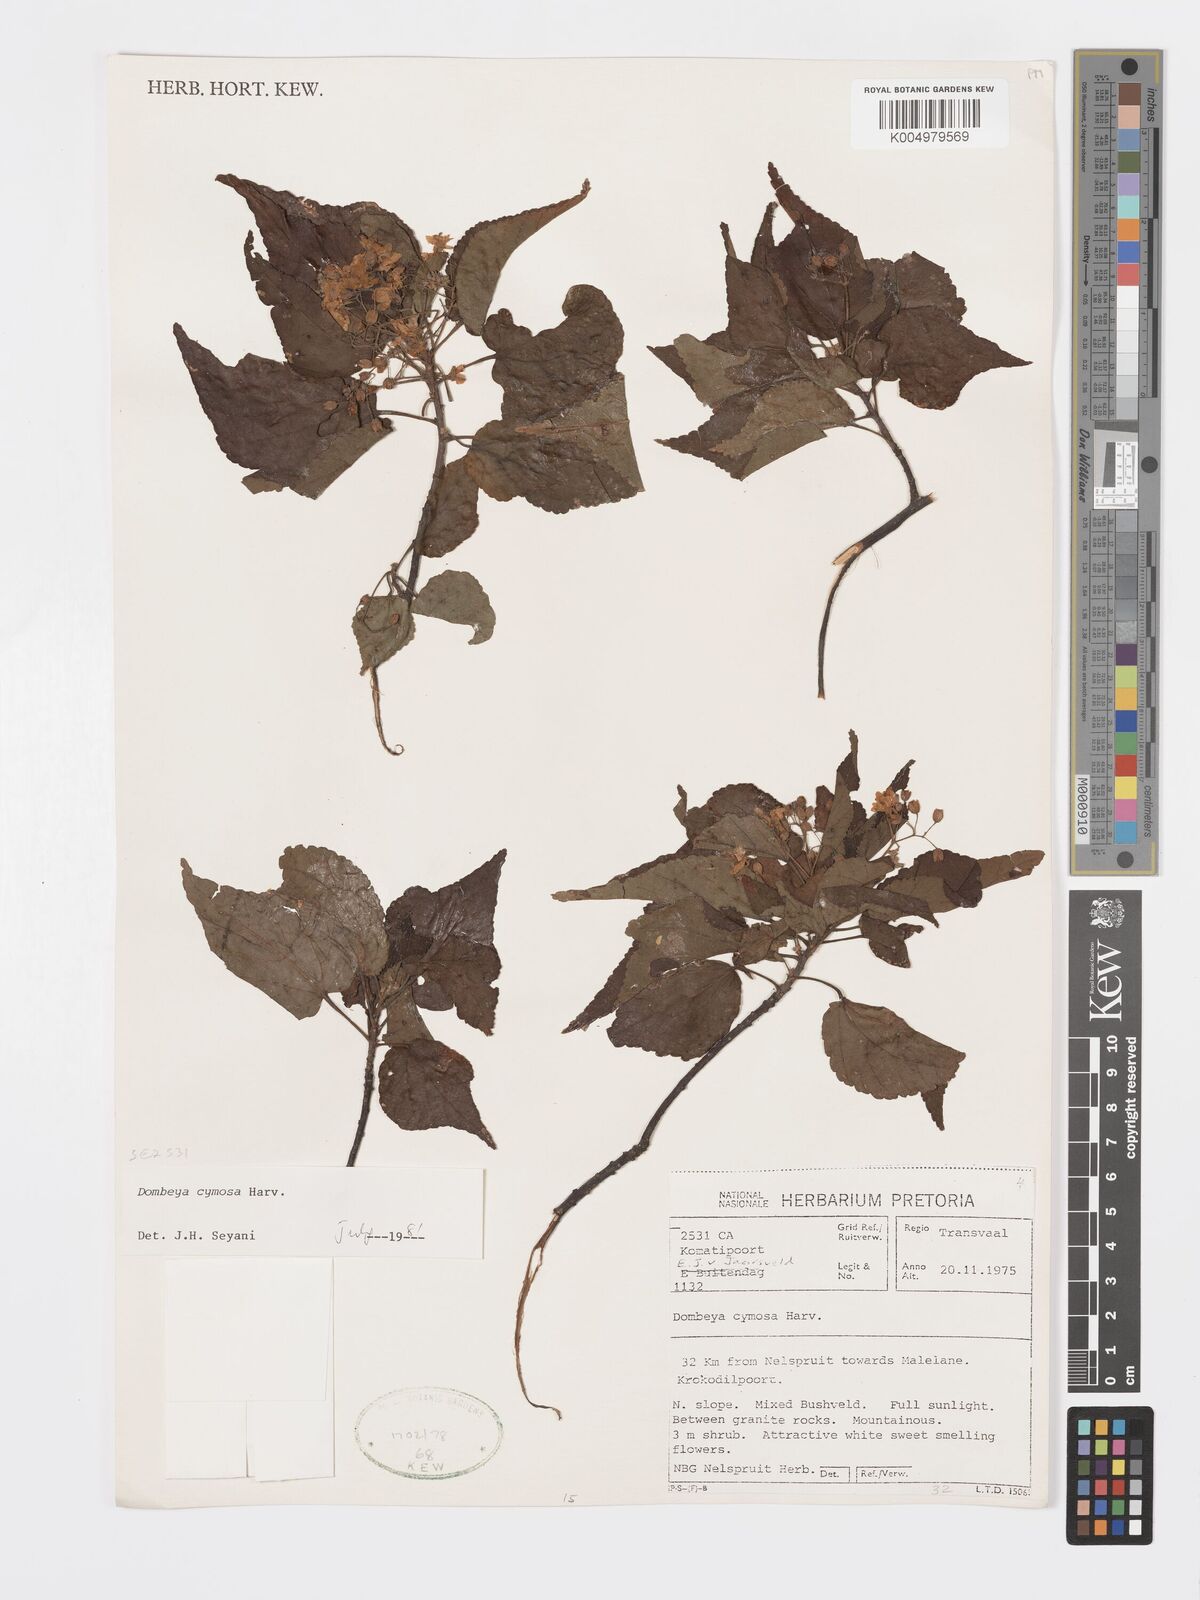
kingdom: Plantae
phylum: Tracheophyta
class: Magnoliopsida
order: Malvales
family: Malvaceae
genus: Dombeya
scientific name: Dombeya cymosa
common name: Hairless dombeya
